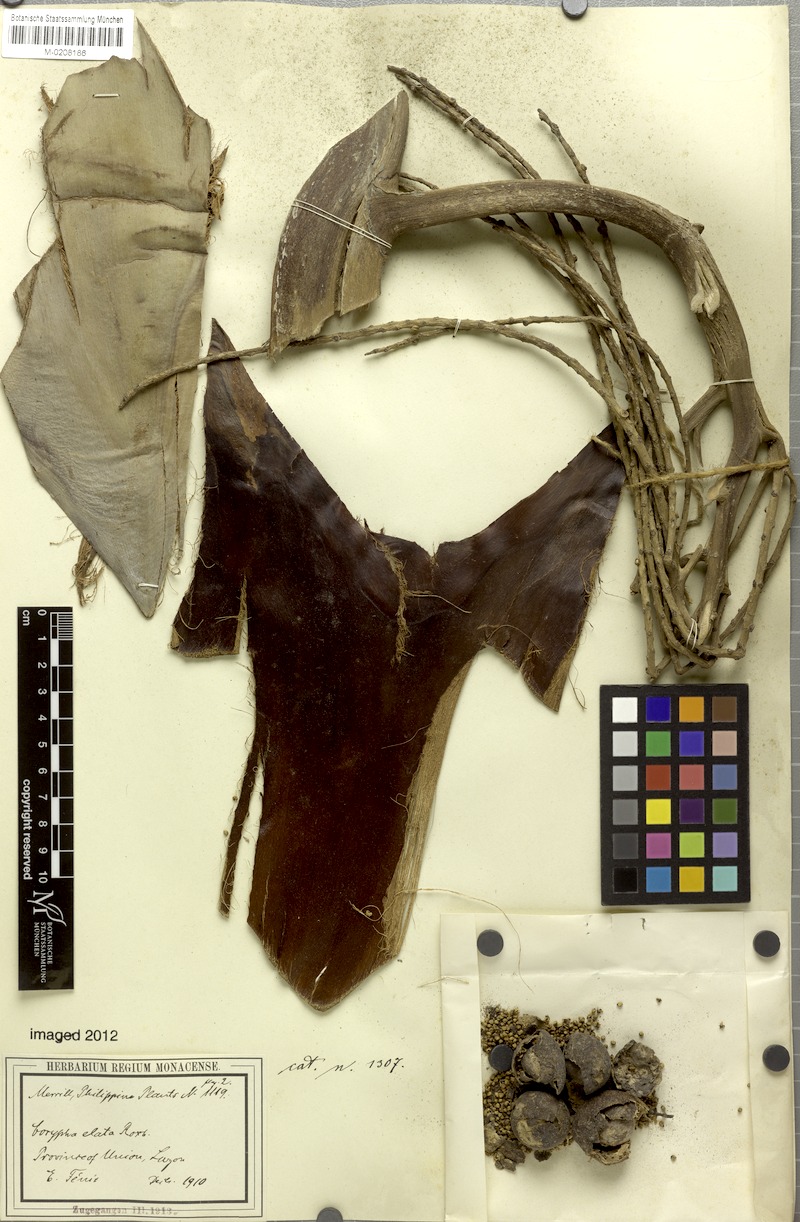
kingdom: Plantae
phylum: Tracheophyta
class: Liliopsida
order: Arecales
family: Arecaceae
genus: Corypha
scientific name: Corypha utan
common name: Buri palm
